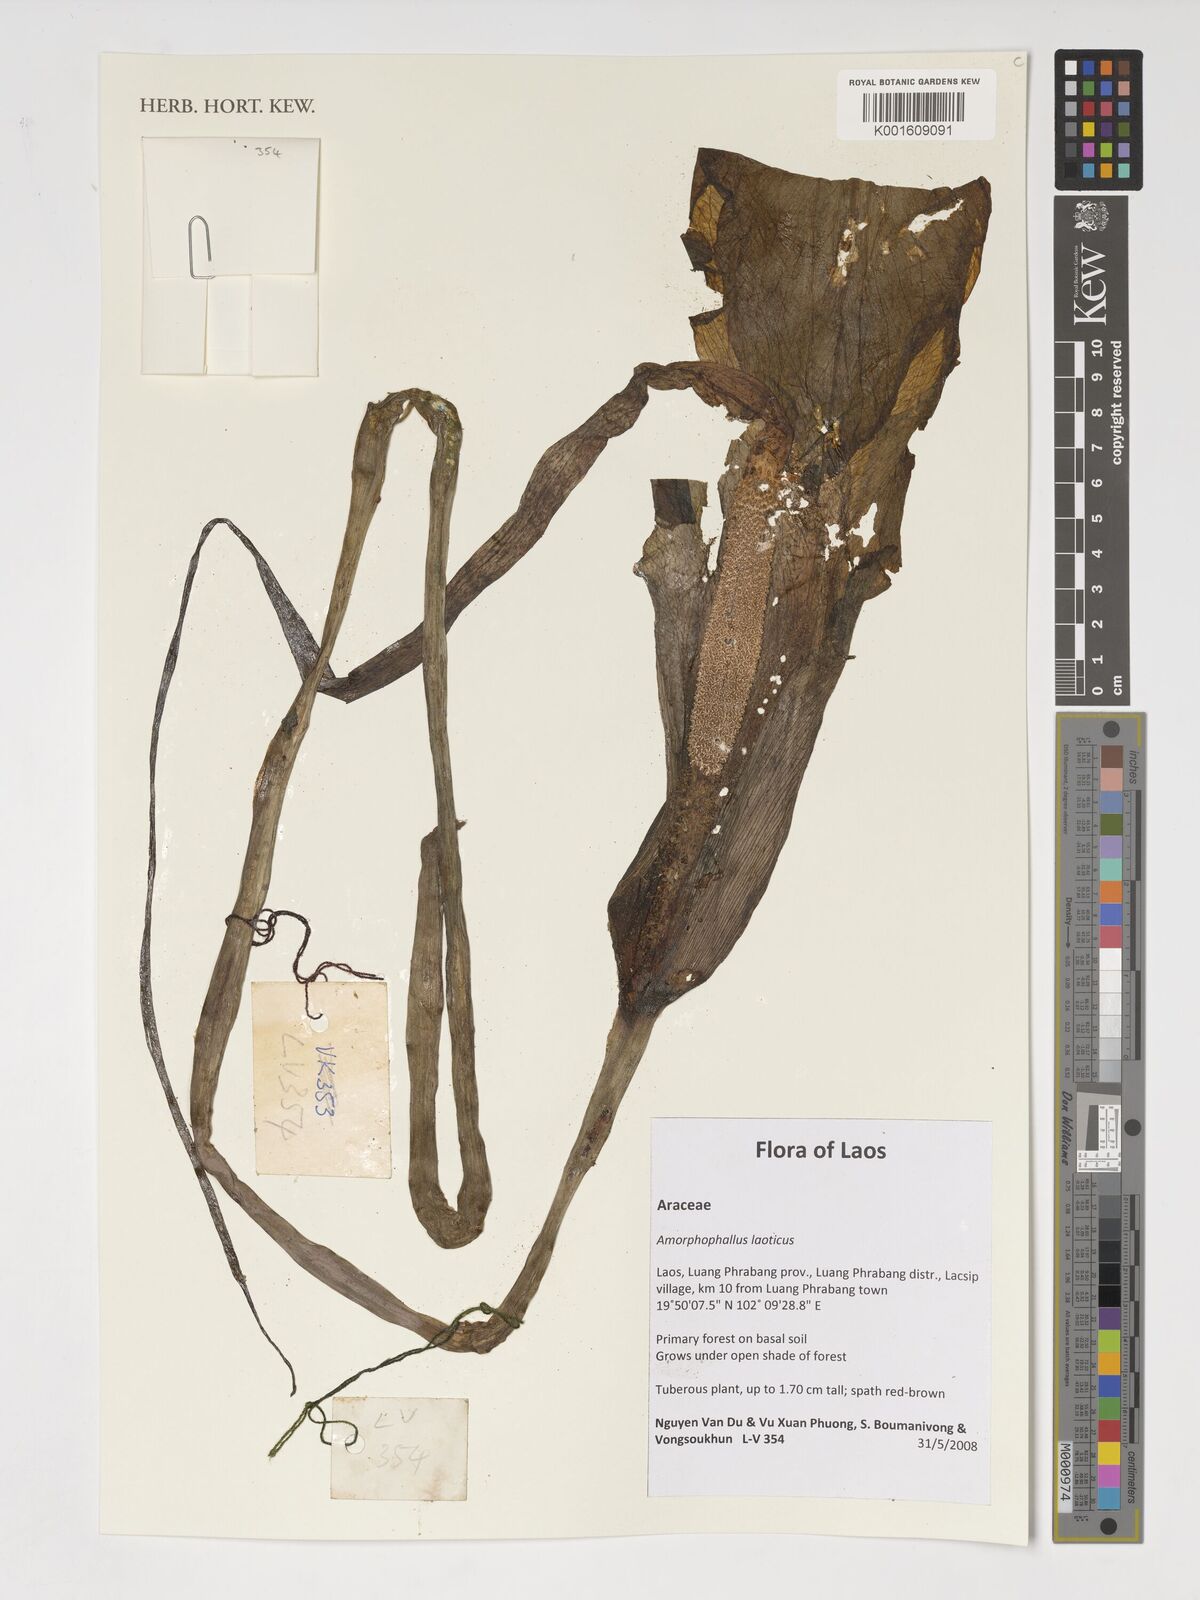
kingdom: Plantae
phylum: Tracheophyta
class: Liliopsida
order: Alismatales
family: Araceae
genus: Amorphophallus
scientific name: Amorphophallus laoticus
